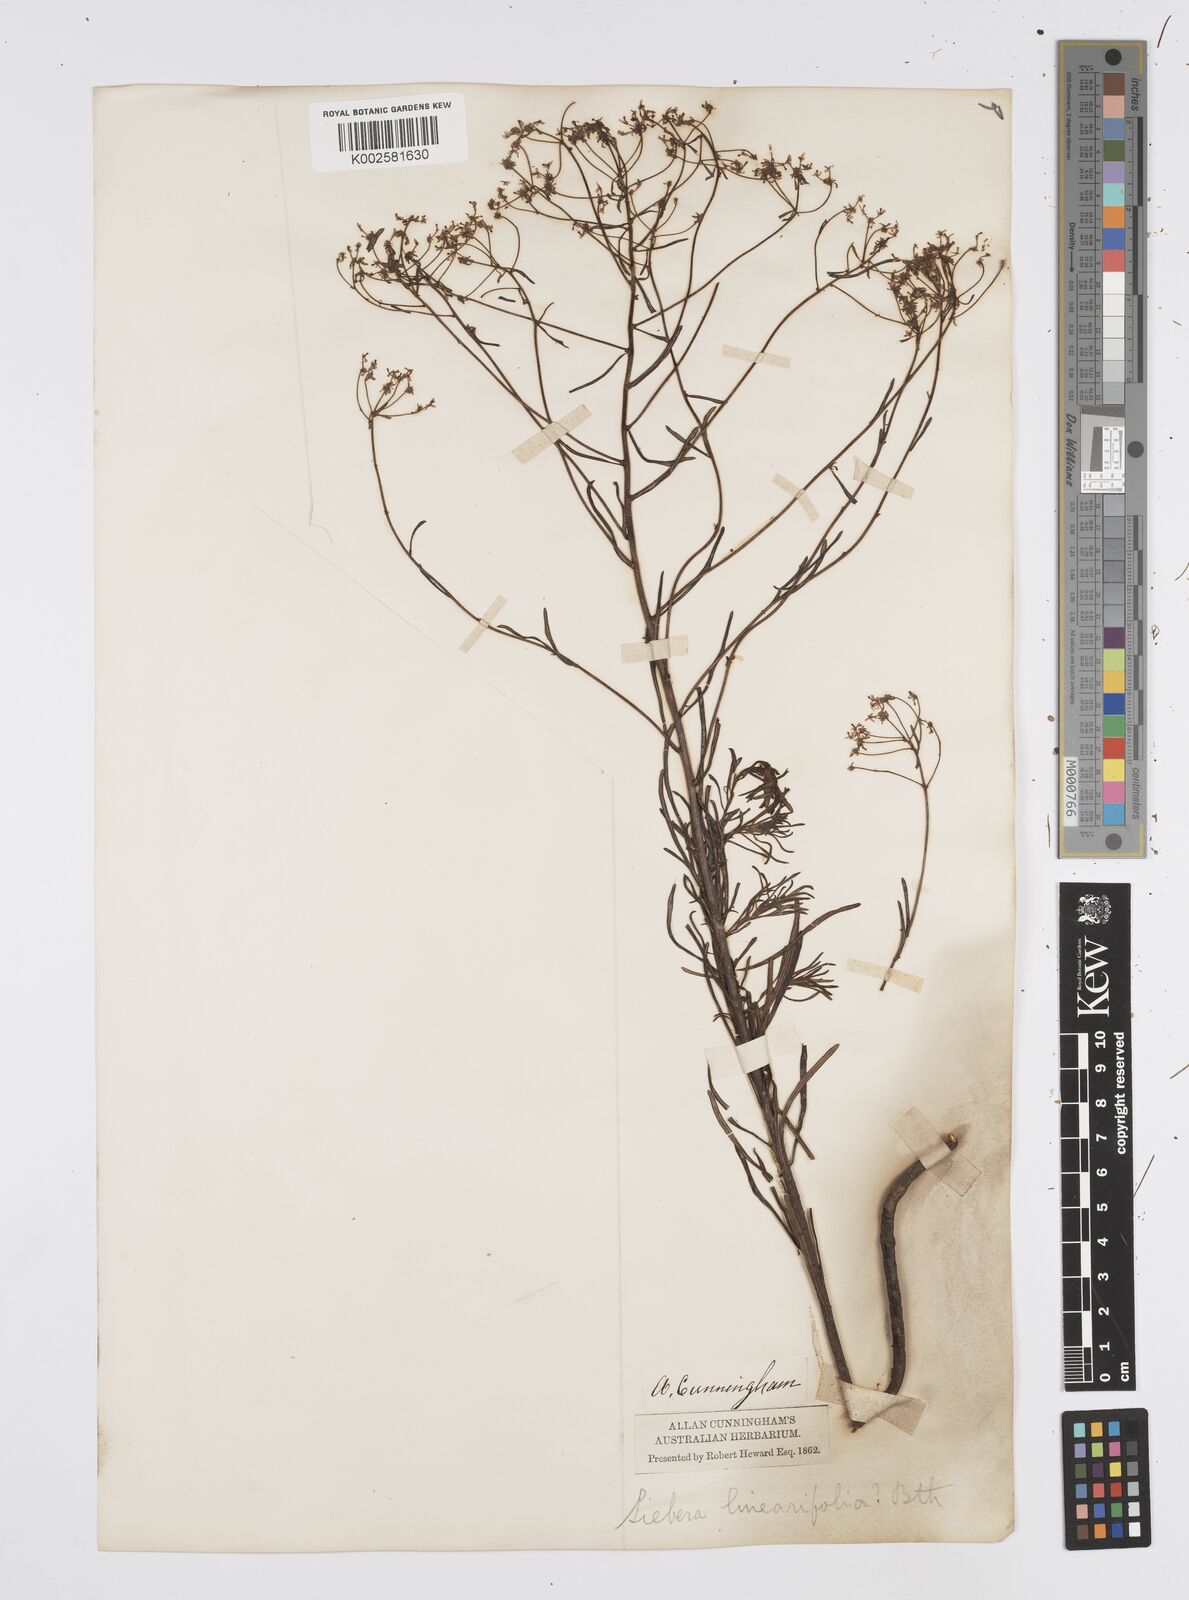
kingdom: Plantae
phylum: Tracheophyta
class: Magnoliopsida
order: Apiales
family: Apiaceae
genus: Platysace
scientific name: Platysace linearifolia
